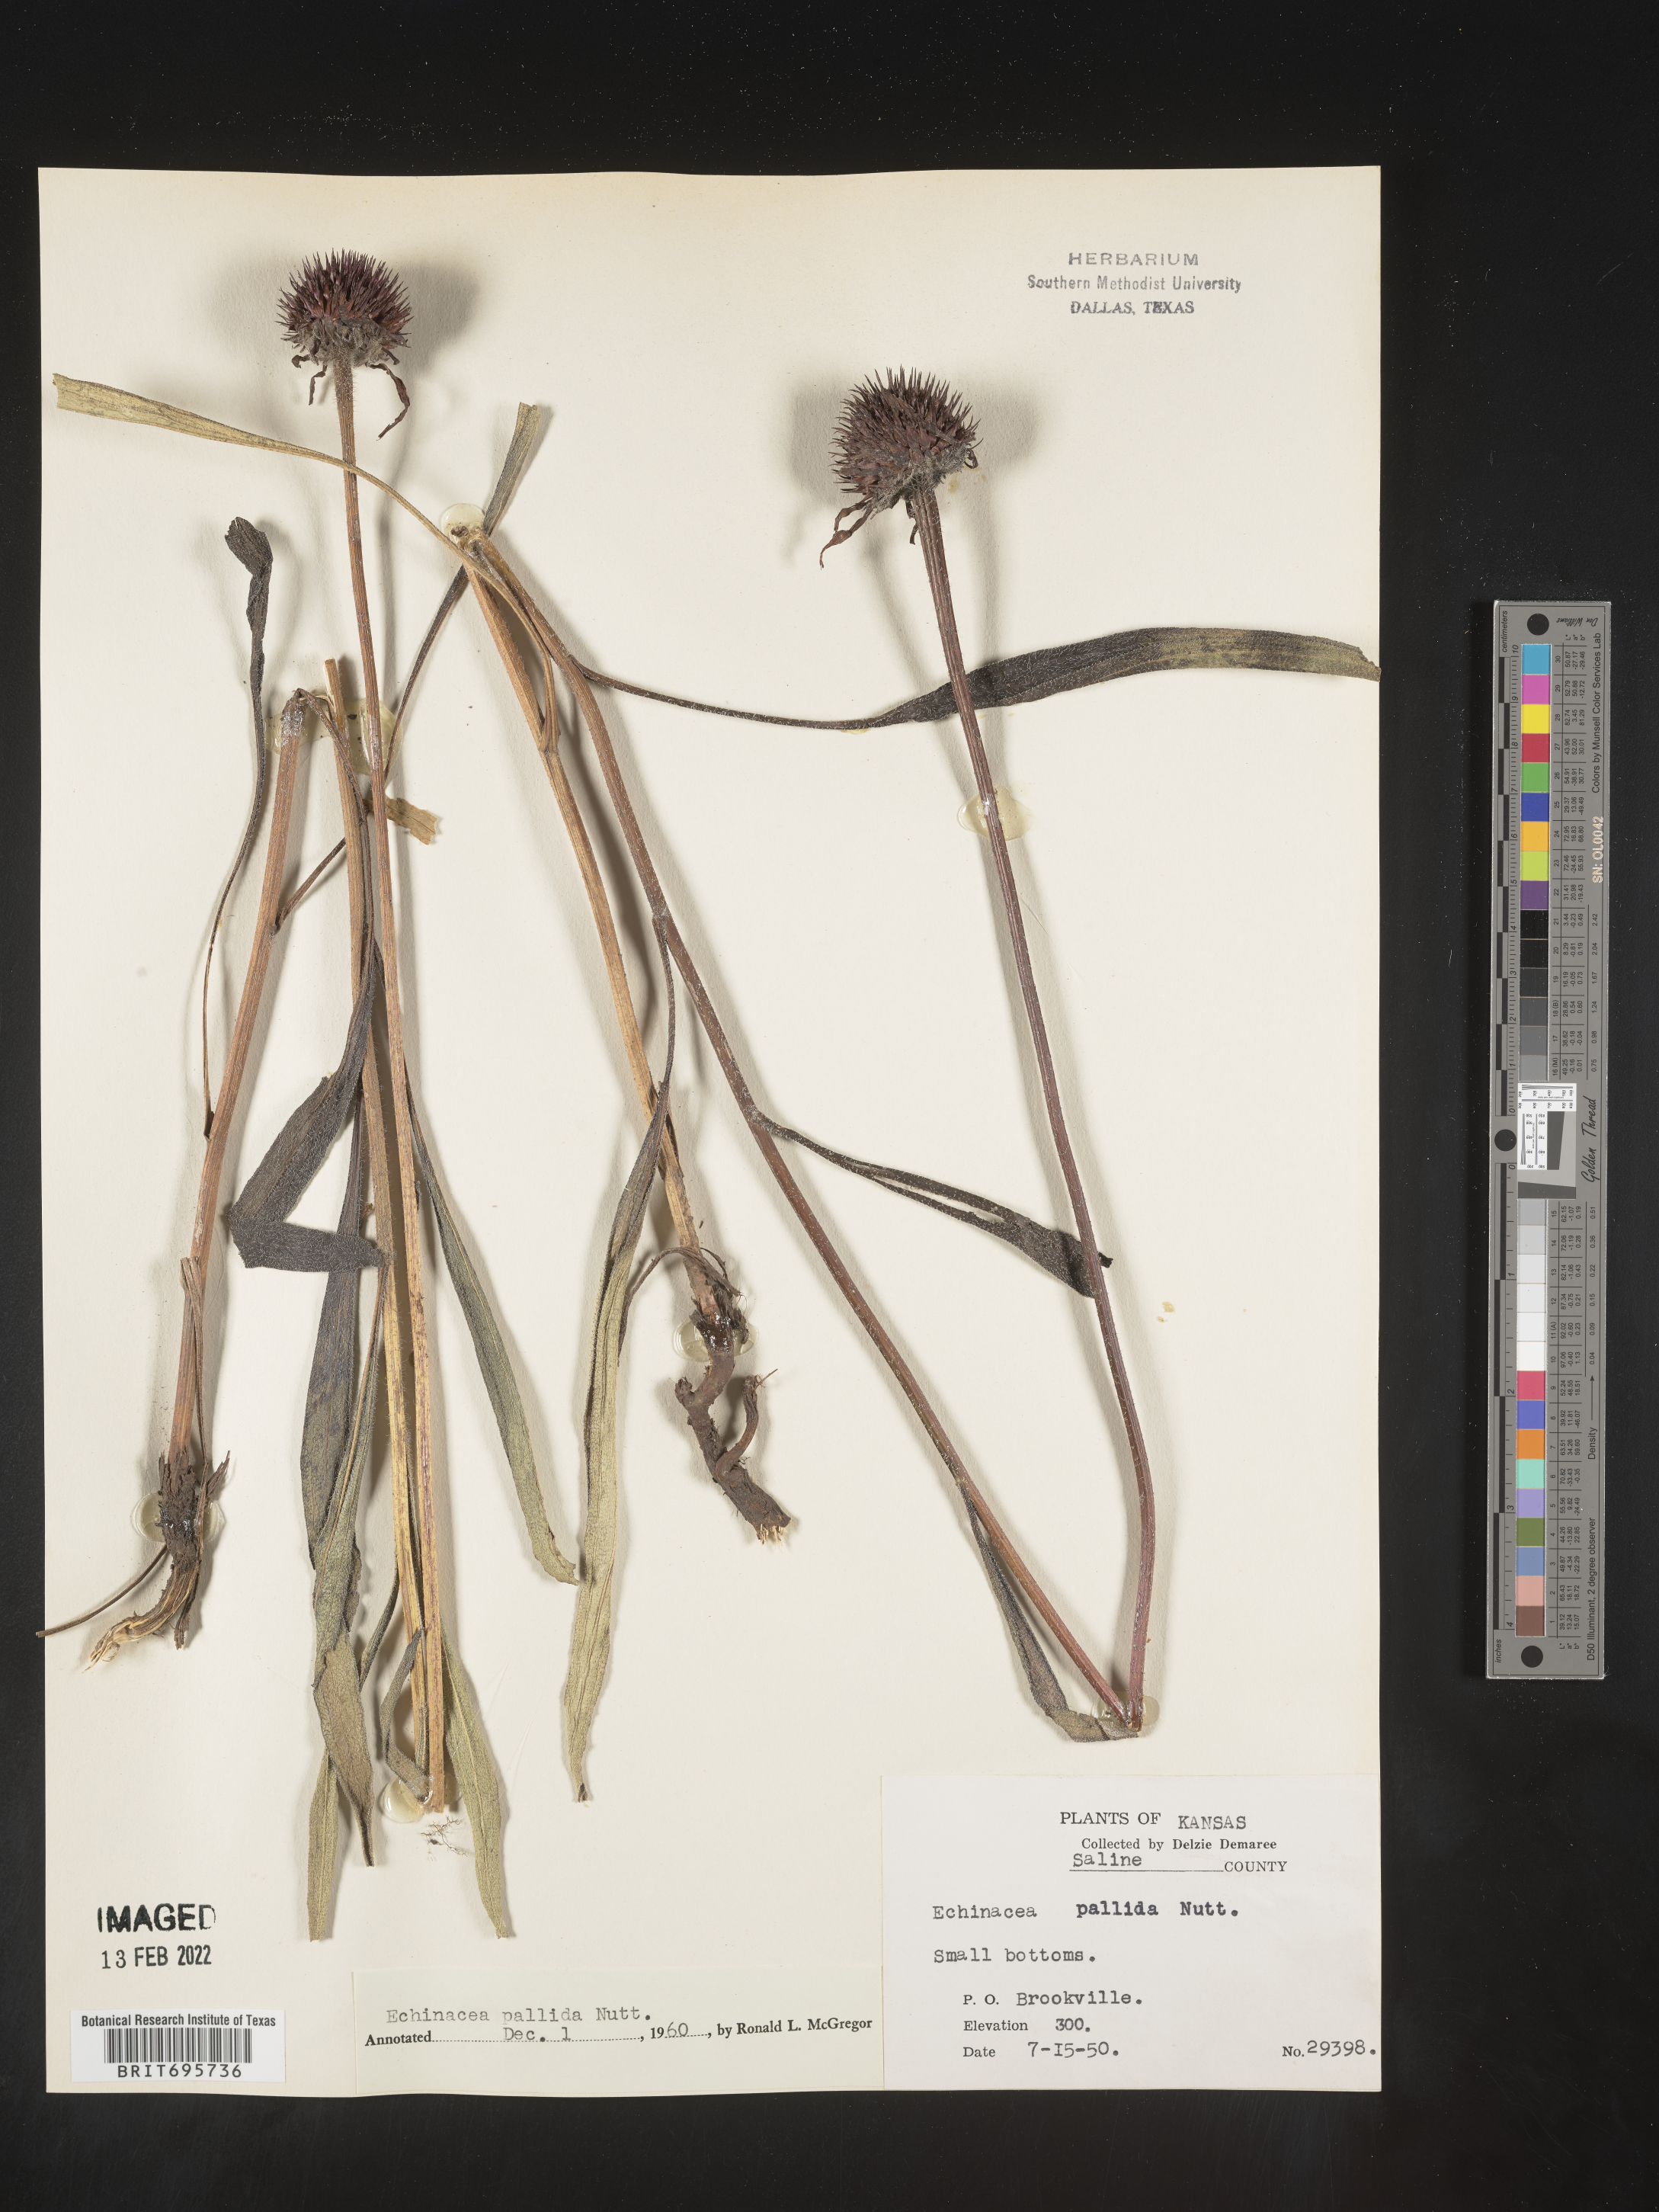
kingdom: Plantae
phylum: Tracheophyta
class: Magnoliopsida
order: Asterales
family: Asteraceae
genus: Echinacea
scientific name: Echinacea pallida
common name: Pale echinacea
